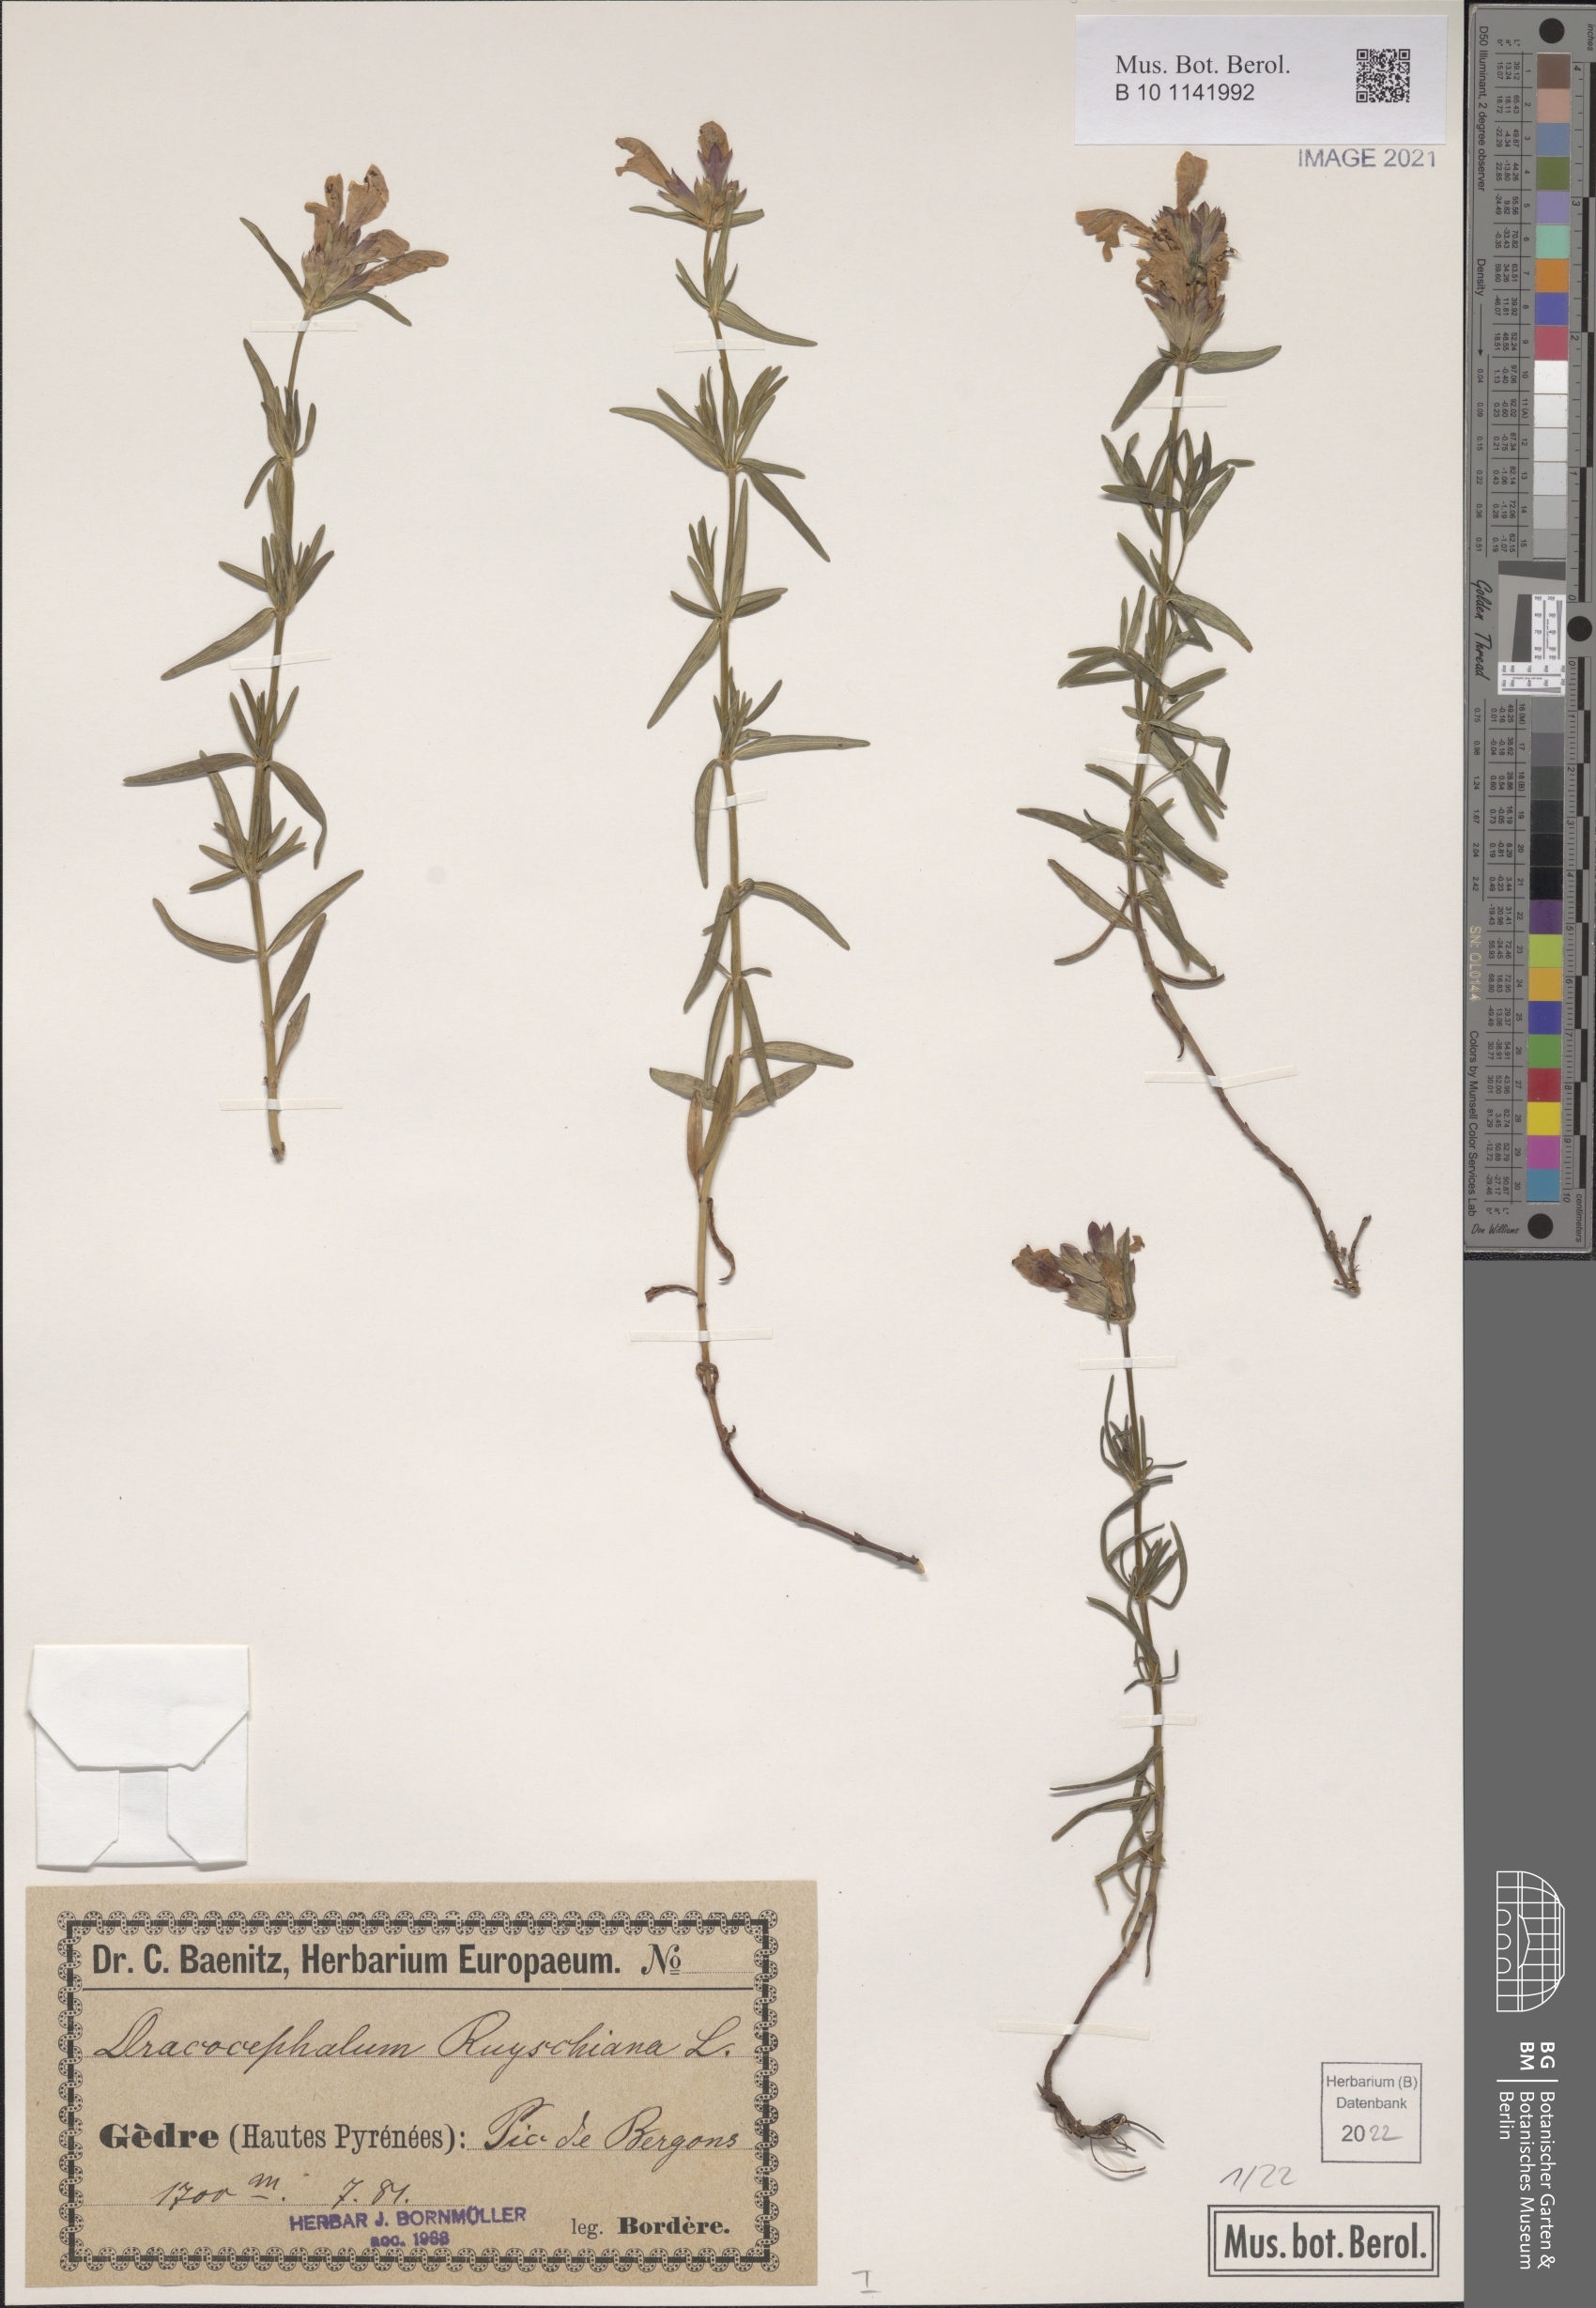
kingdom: Plantae
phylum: Tracheophyta
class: Magnoliopsida
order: Lamiales
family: Lamiaceae
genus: Dracocephalum
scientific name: Dracocephalum ruyschiana
